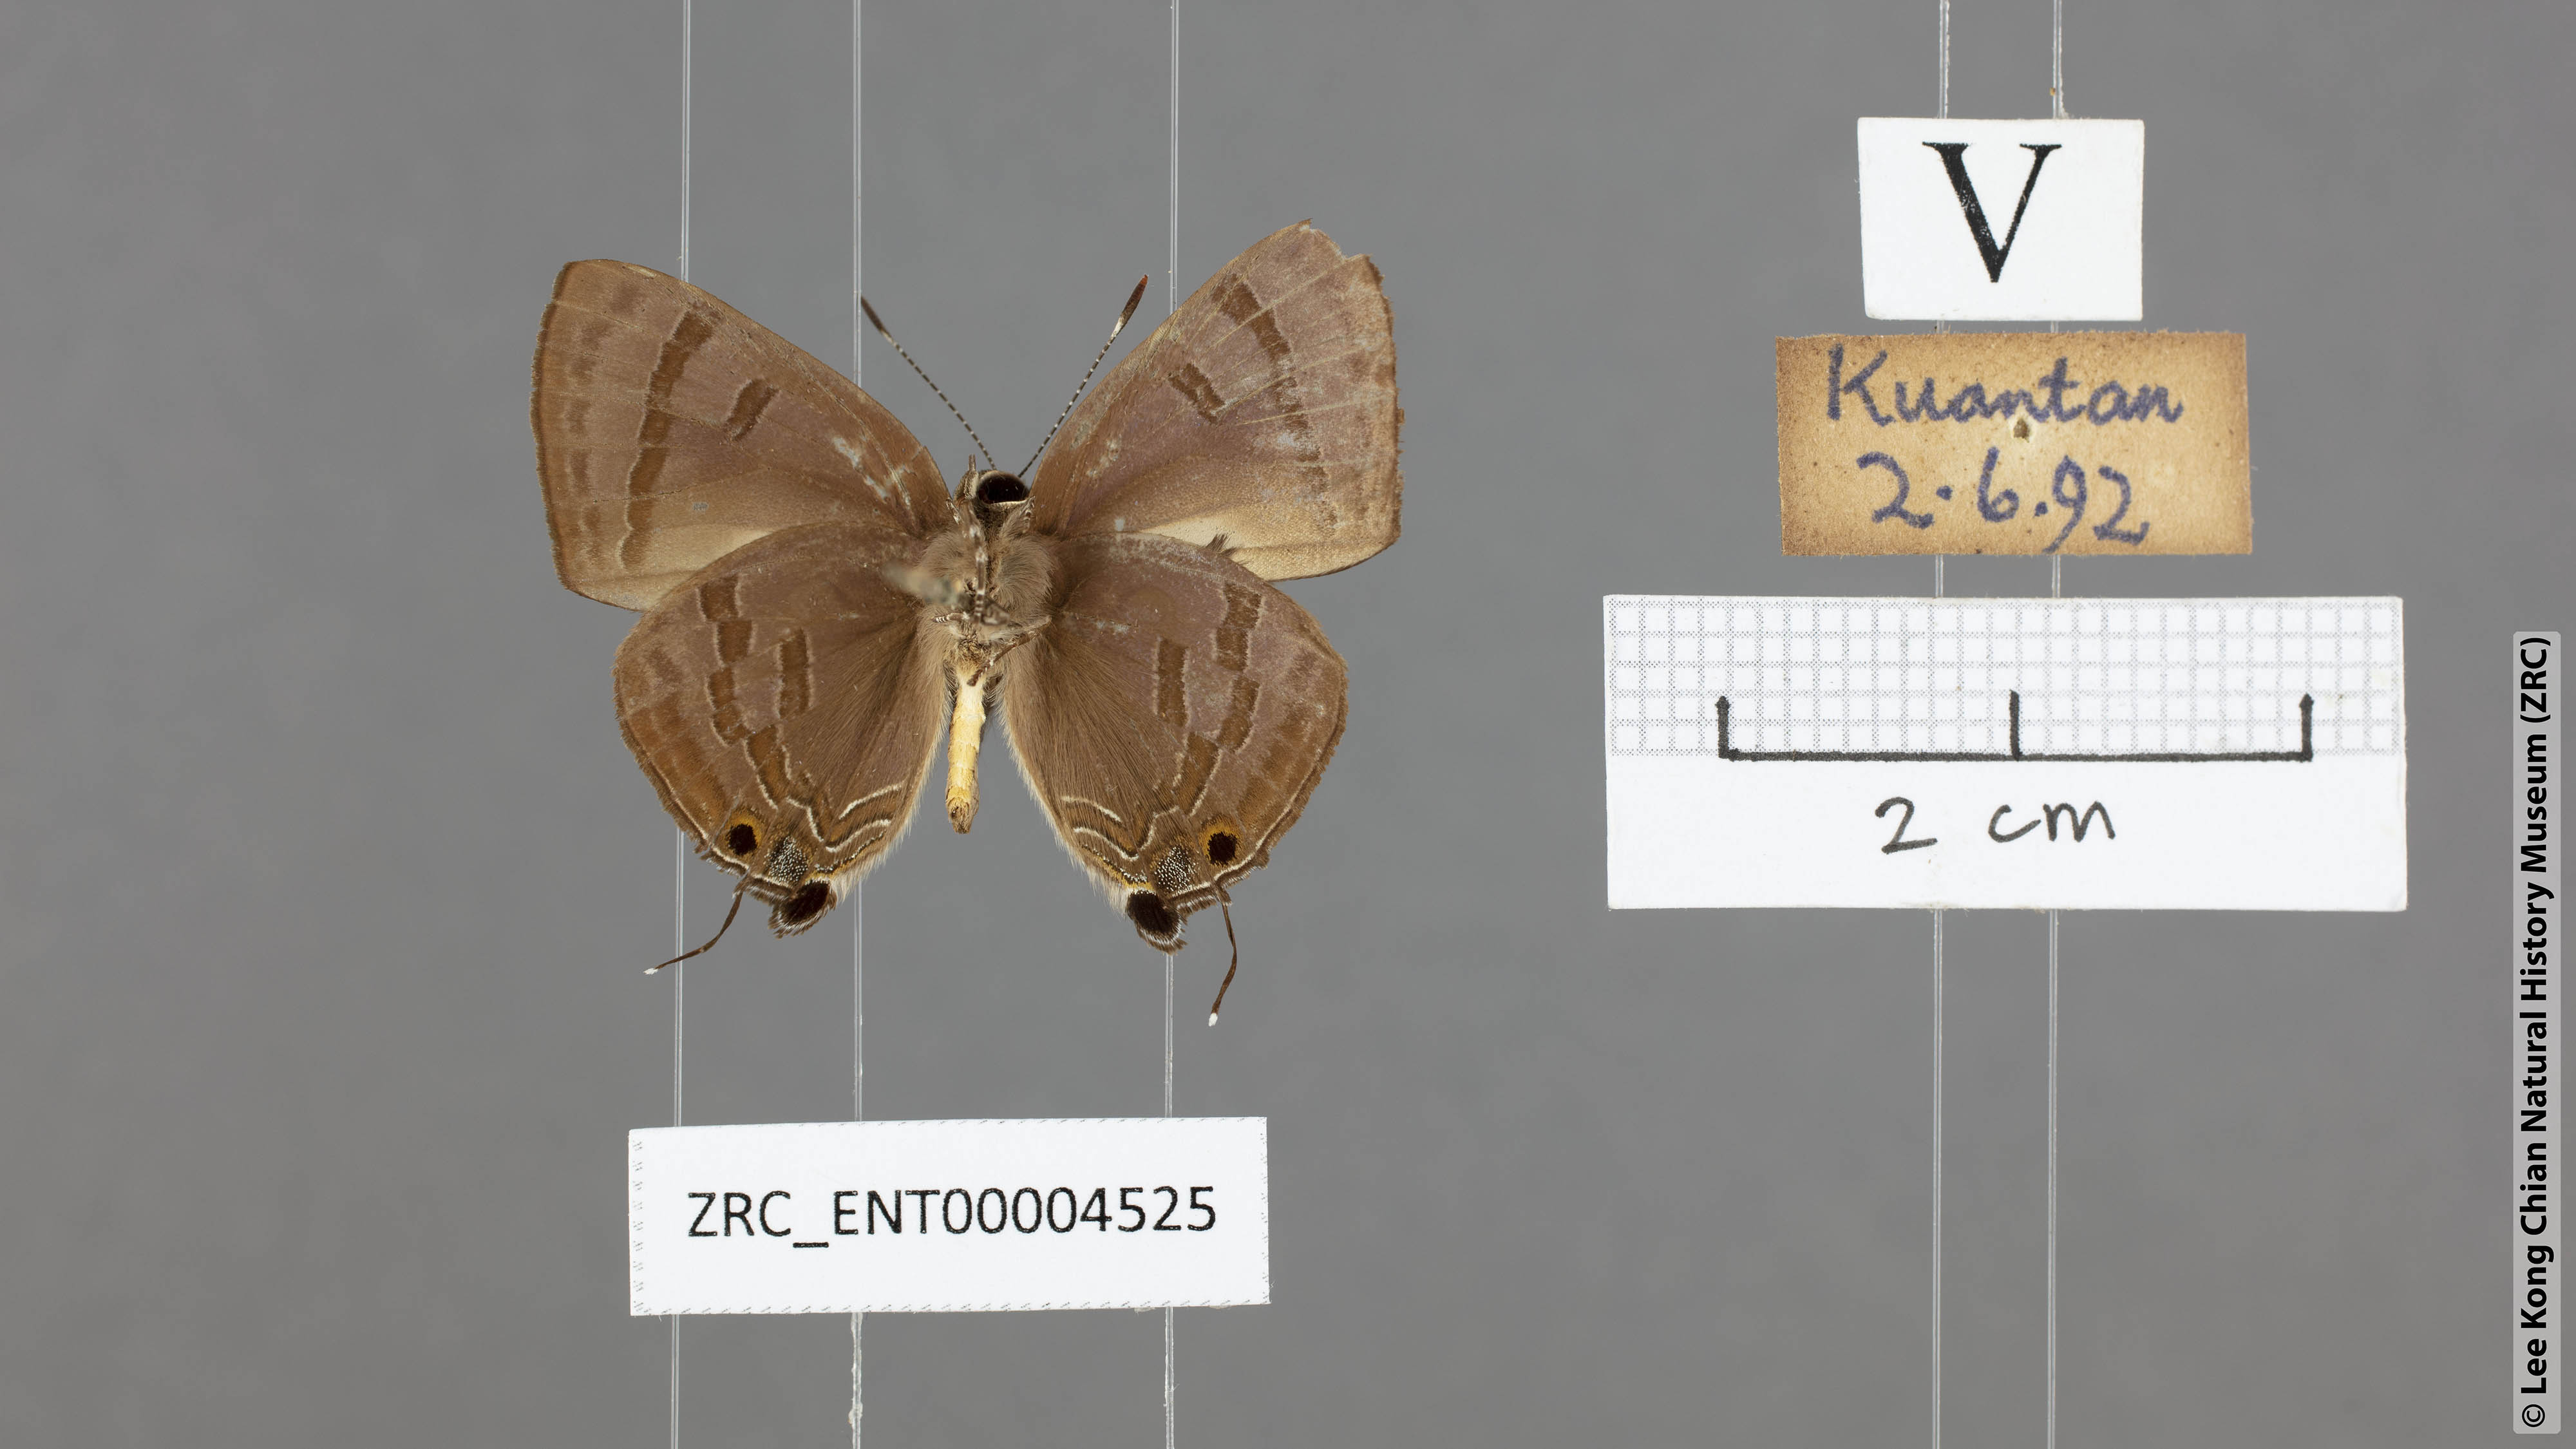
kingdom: Animalia
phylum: Arthropoda
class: Insecta
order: Lepidoptera
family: Lycaenidae
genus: Rapala
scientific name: Rapala varuna
